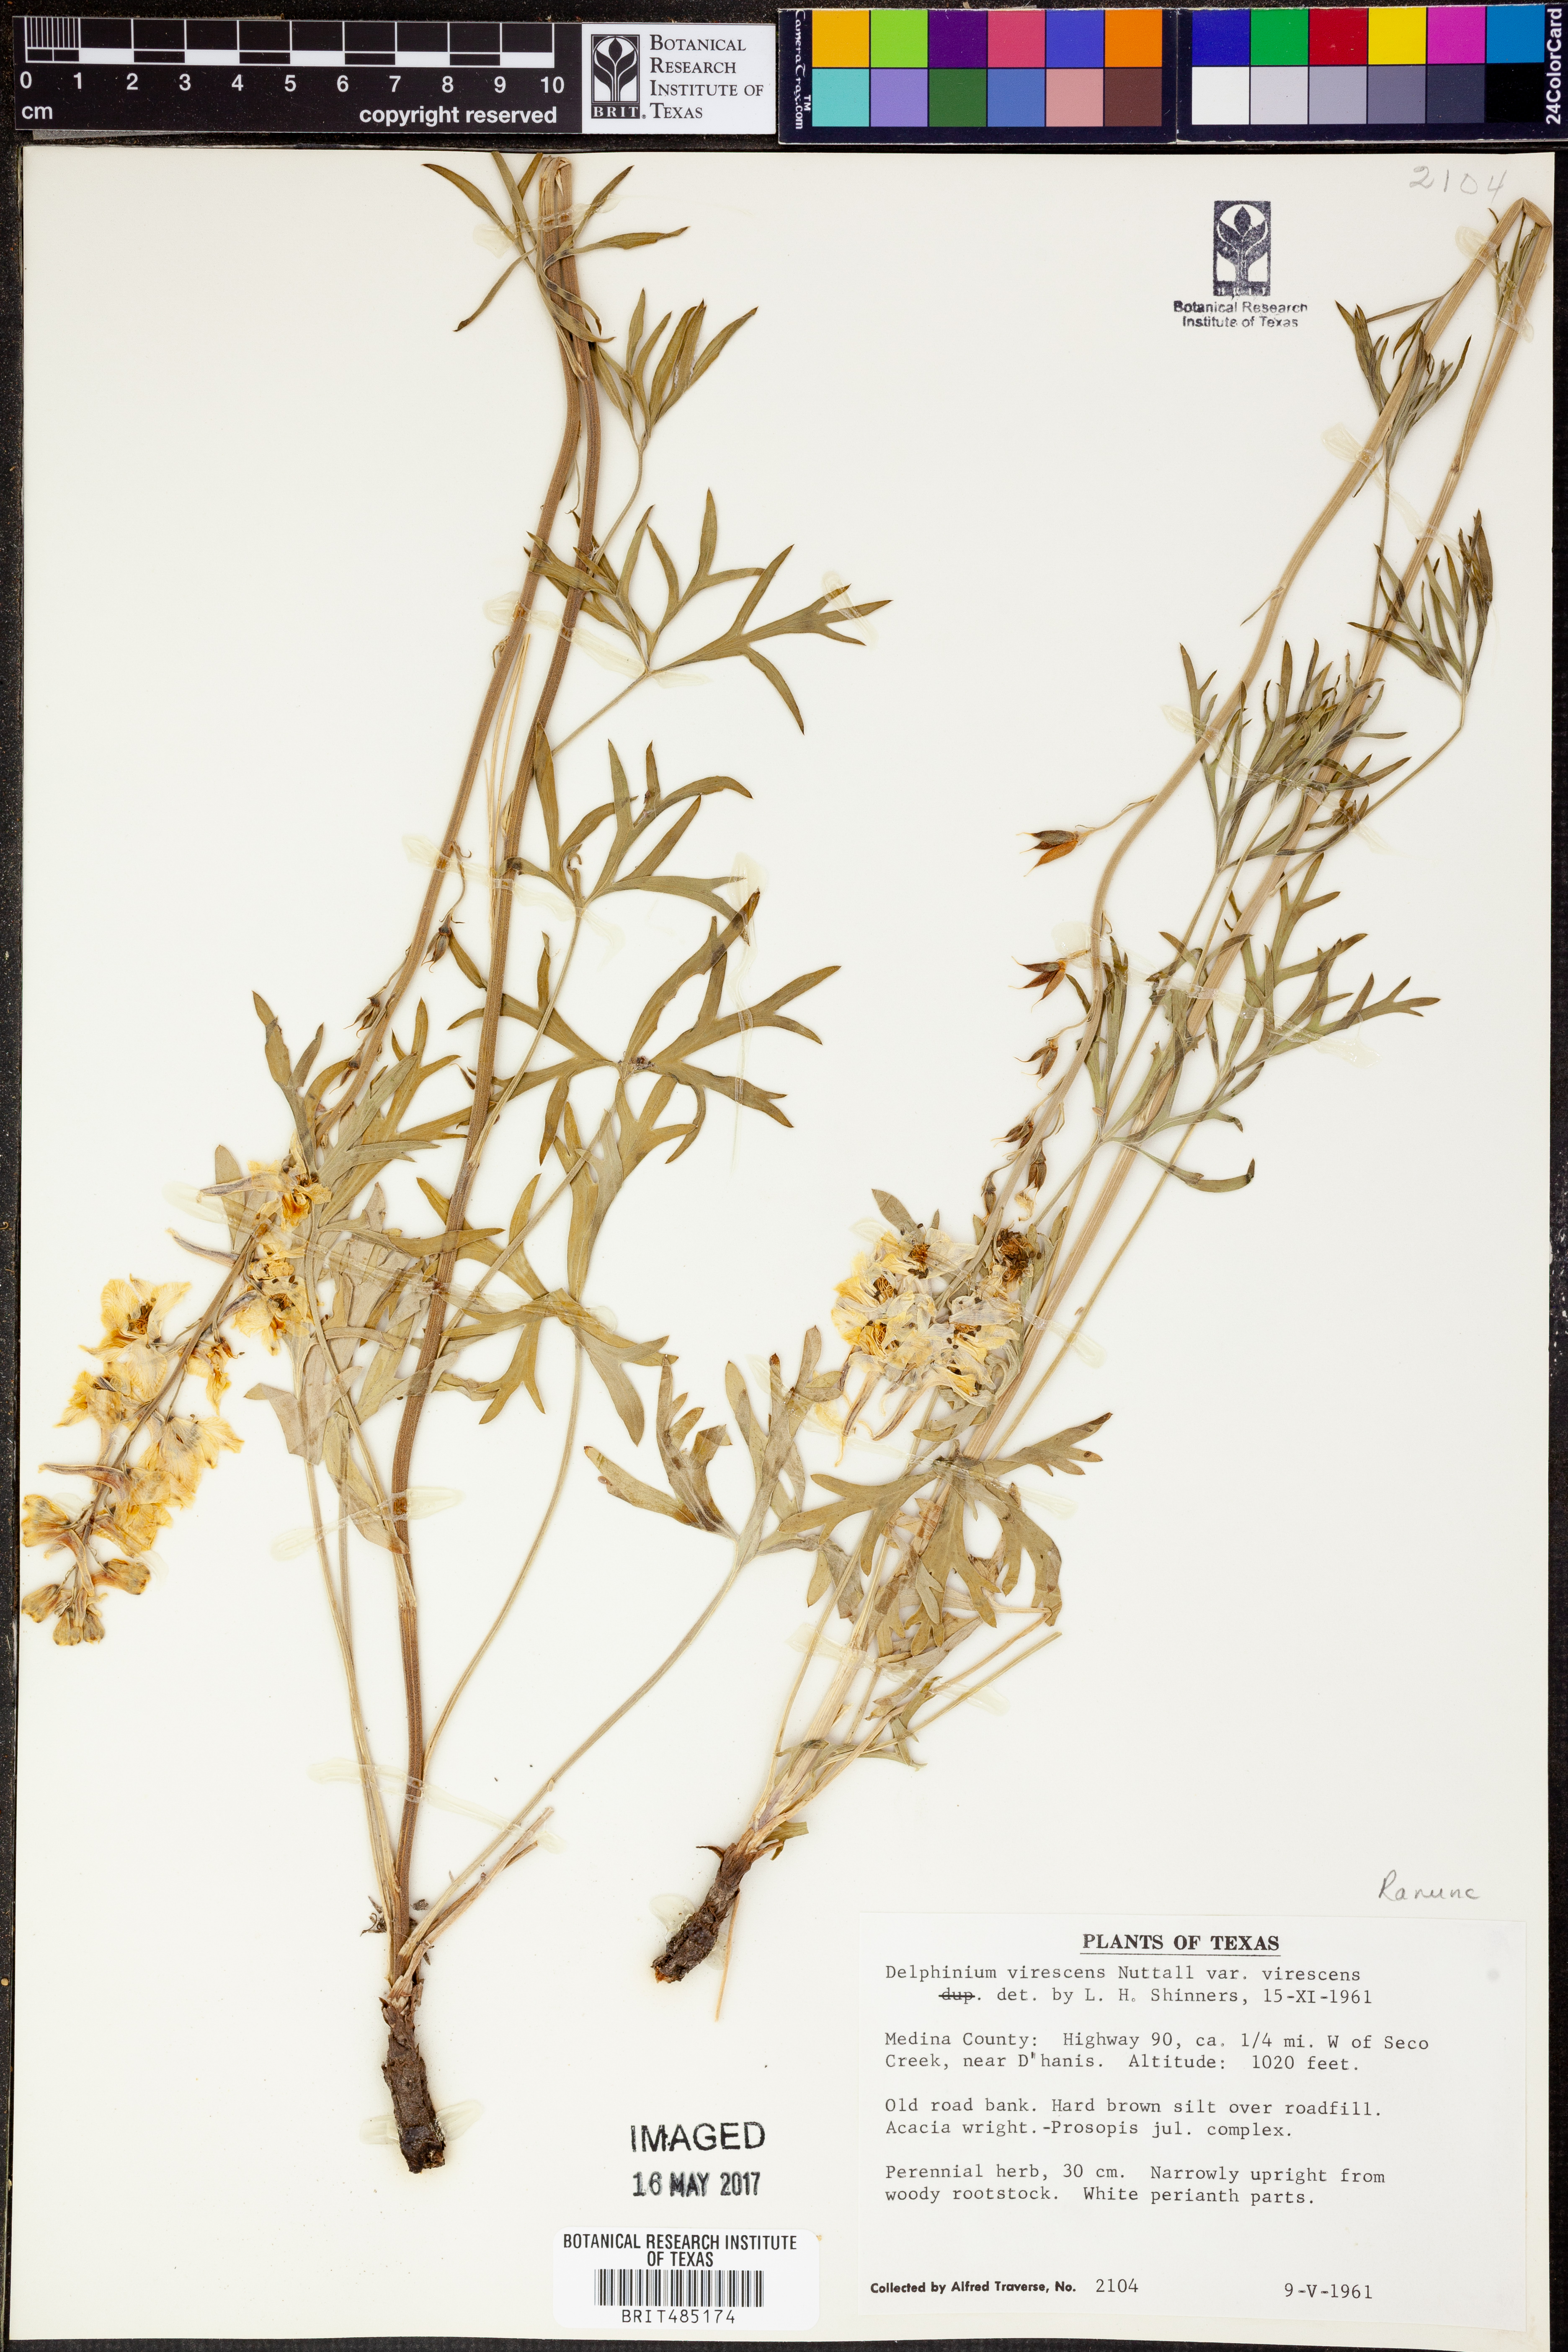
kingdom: Plantae
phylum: Tracheophyta
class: Magnoliopsida
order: Ranunculales
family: Ranunculaceae
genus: Delphinium
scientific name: Delphinium carolinianum
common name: Carolina larkspur
